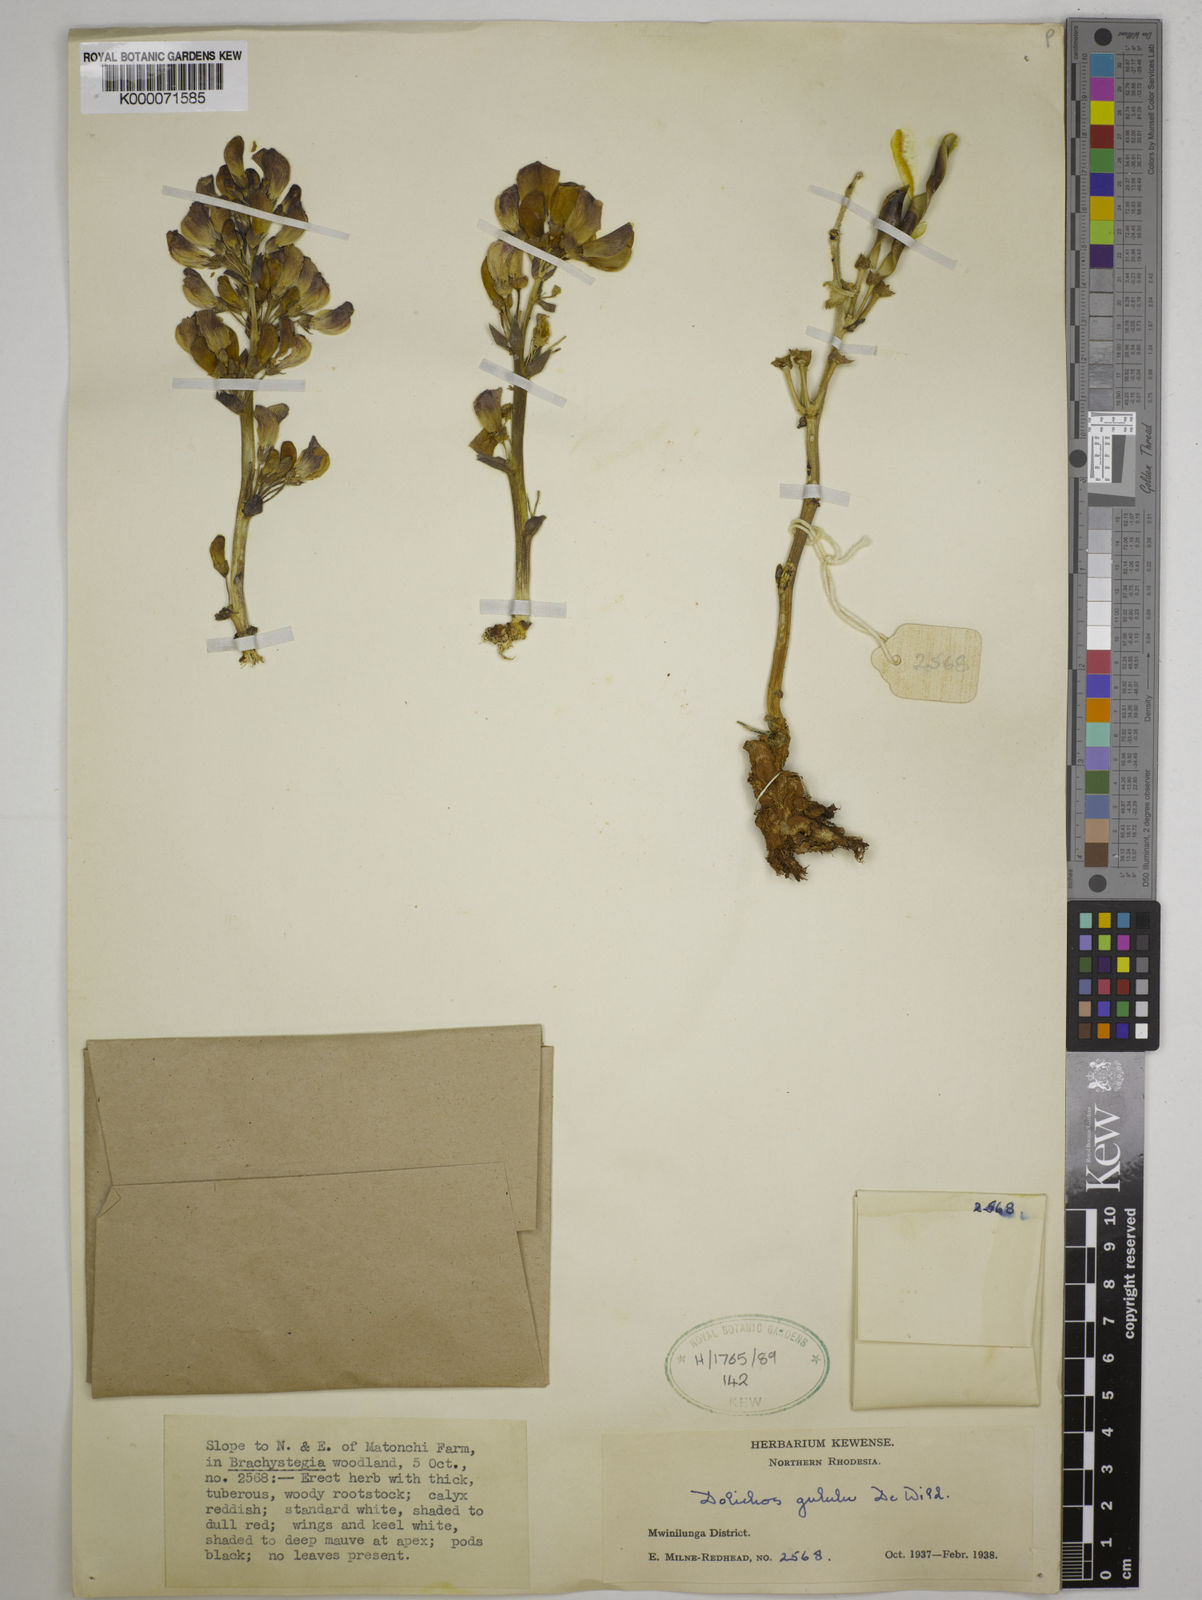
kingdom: Plantae
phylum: Tracheophyta
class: Magnoliopsida
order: Fabales
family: Fabaceae
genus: Dolichos
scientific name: Dolichos gululu
